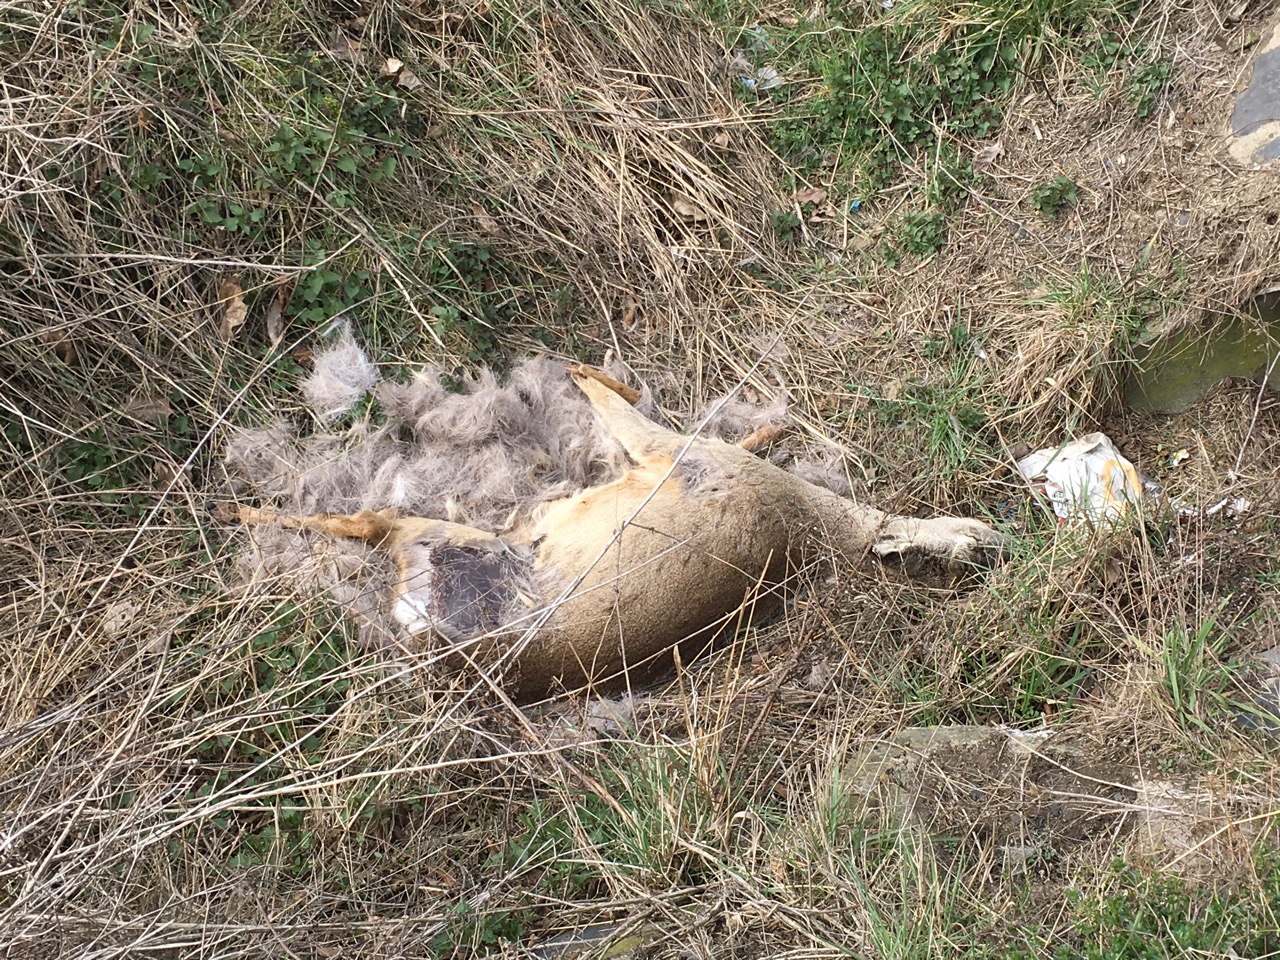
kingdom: Animalia
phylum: Chordata
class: Mammalia
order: Artiodactyla
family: Cervidae
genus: Capreolus
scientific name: Capreolus capreolus
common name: Western roe deer
